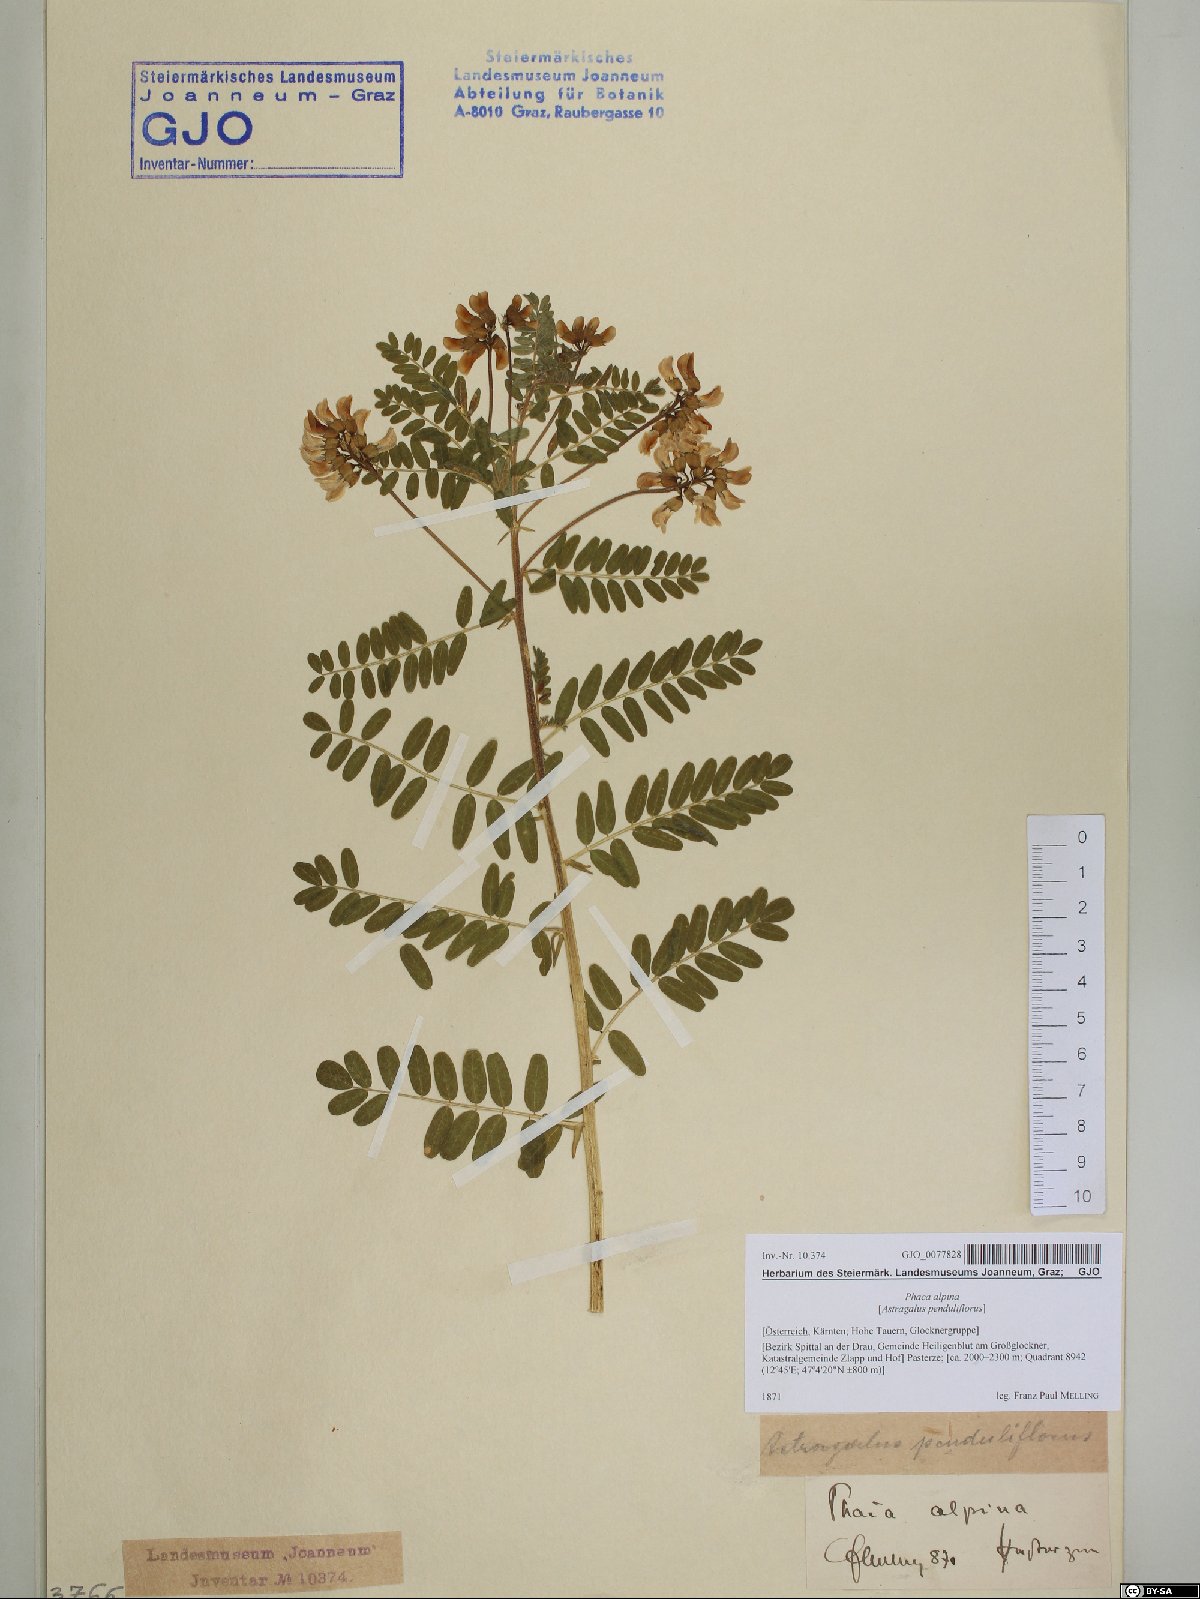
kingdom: Plantae
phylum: Tracheophyta
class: Magnoliopsida
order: Fabales
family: Fabaceae
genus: Astragalus
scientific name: Astragalus penduliflorus
